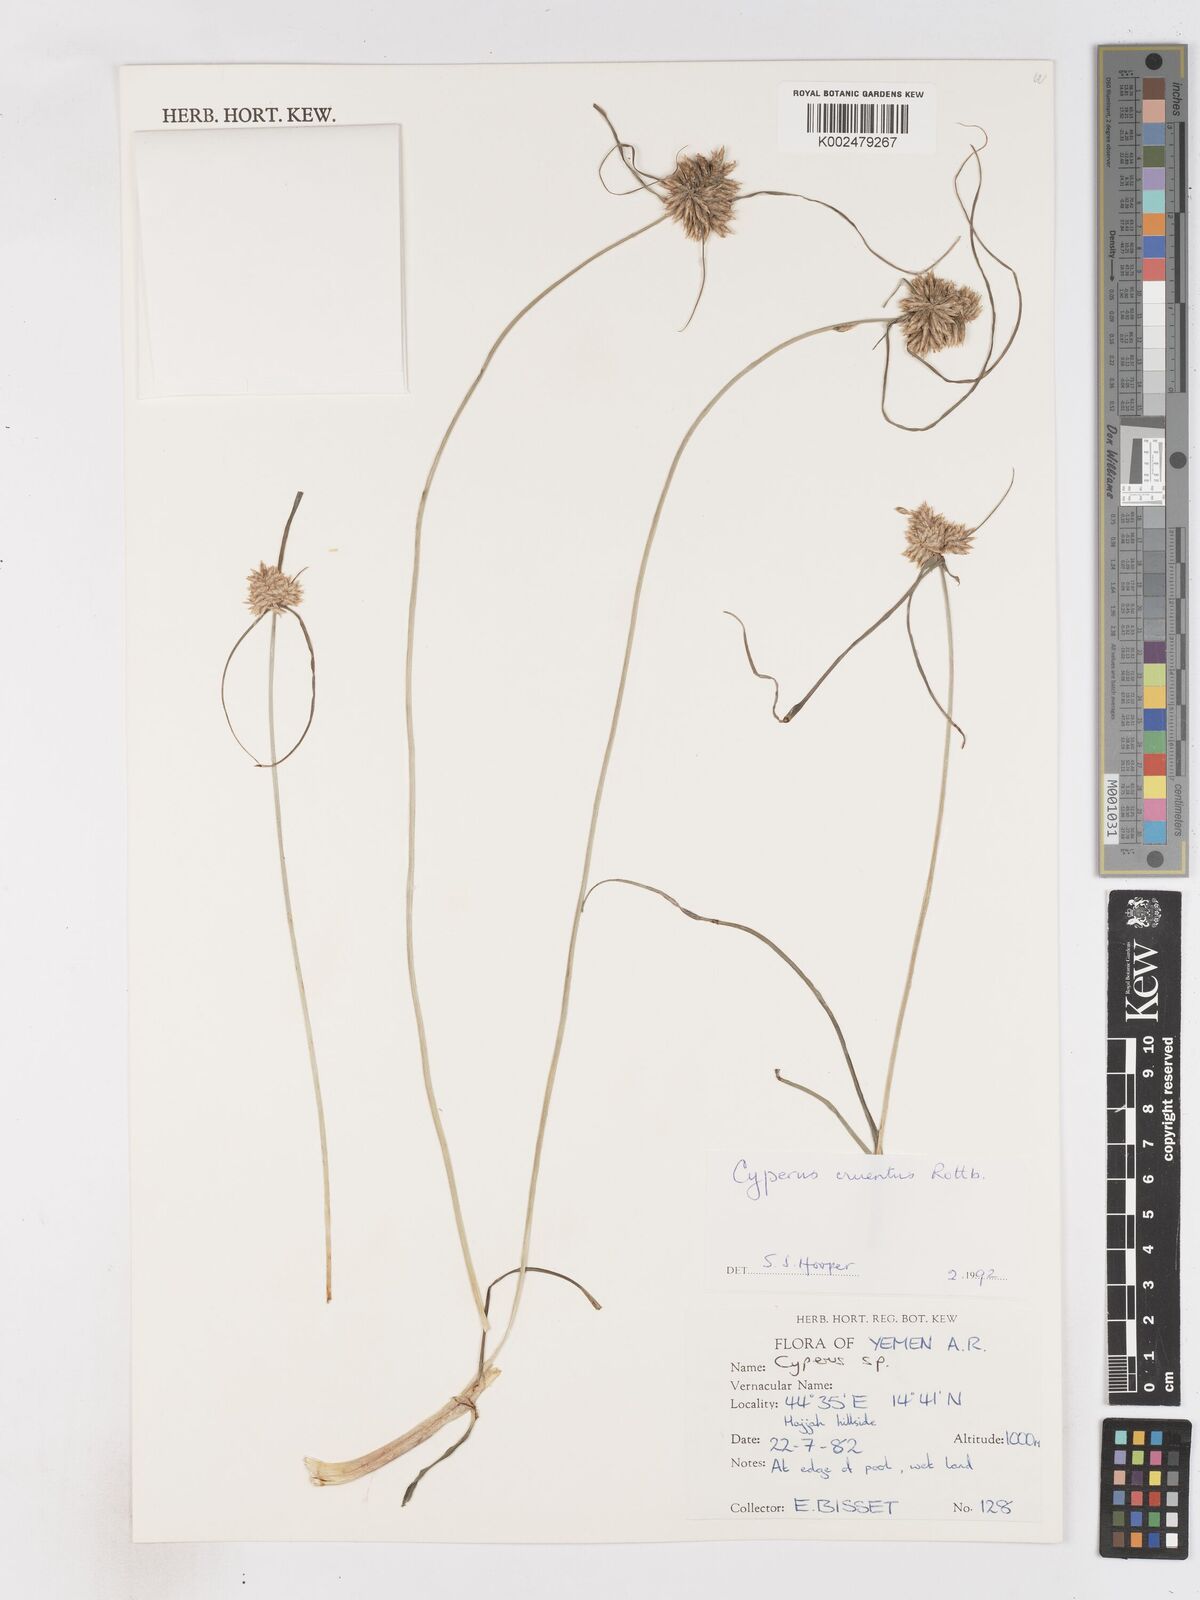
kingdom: Plantae
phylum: Tracheophyta
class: Liliopsida
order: Poales
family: Cyperaceae
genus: Cyperus
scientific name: Cyperus cruentus
